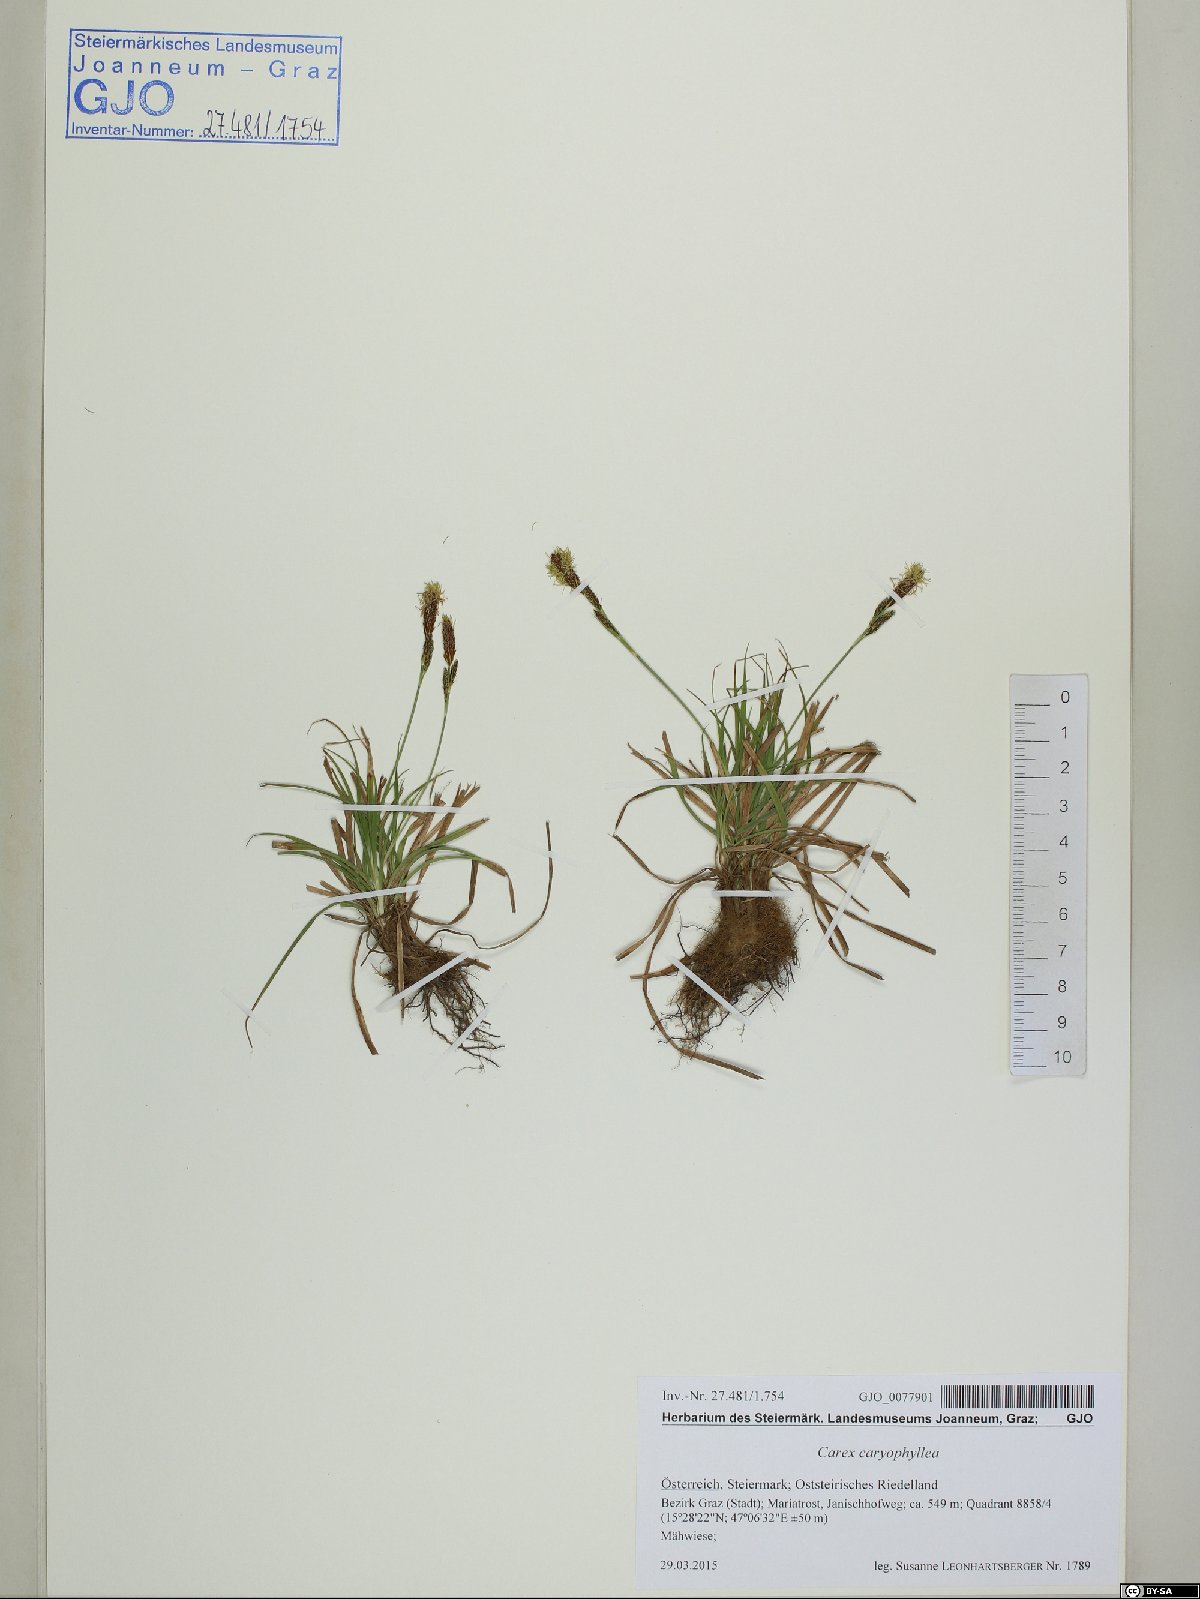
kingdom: Plantae
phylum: Tracheophyta
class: Liliopsida
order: Poales
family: Cyperaceae
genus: Carex
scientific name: Carex caryophyllea
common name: Spring sedge
